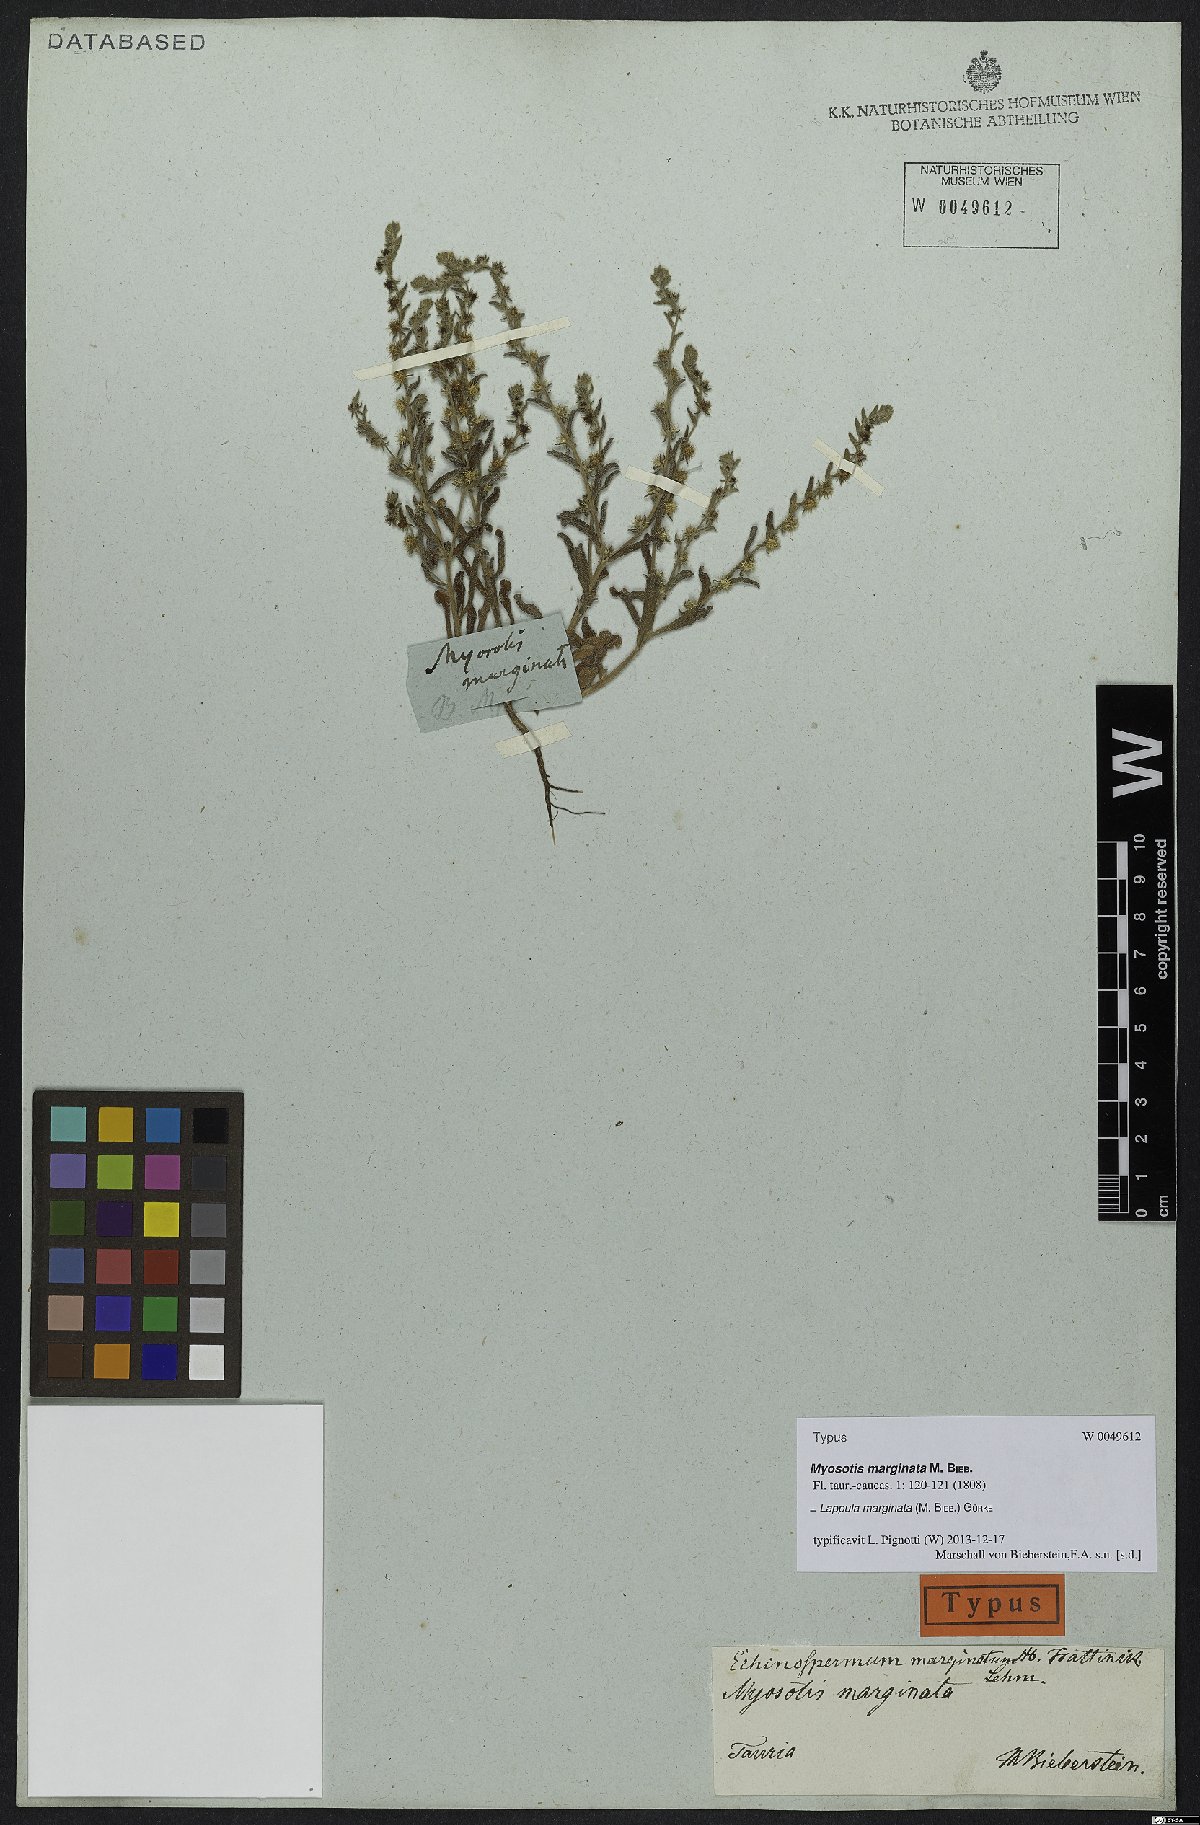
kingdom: Plantae
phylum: Tracheophyta
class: Magnoliopsida
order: Boraginales
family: Boraginaceae
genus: Lappula
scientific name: Lappula marginata
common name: Margined stickseed
